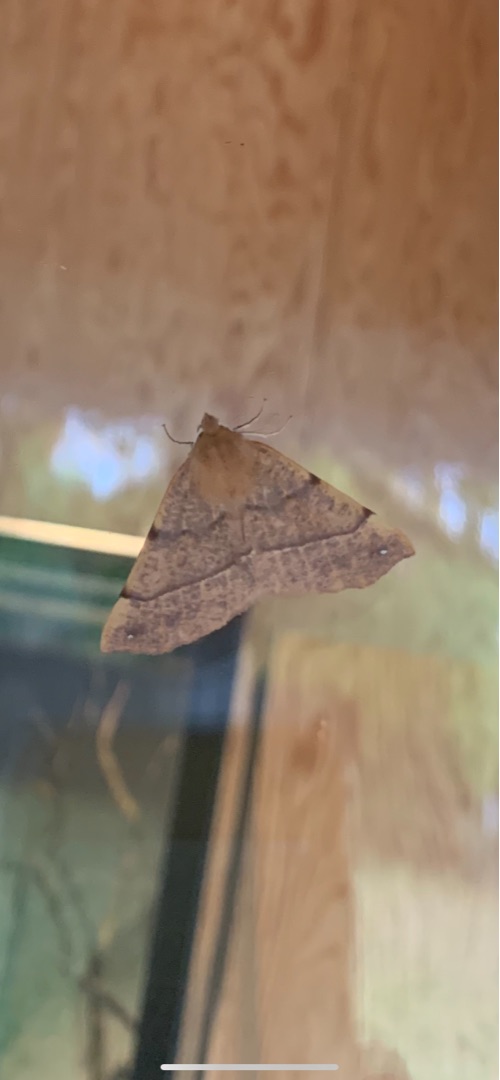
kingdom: Animalia
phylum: Arthropoda
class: Insecta
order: Lepidoptera
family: Geometridae
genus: Colotois
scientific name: Colotois pennaria
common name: Løvfaldsmåler
